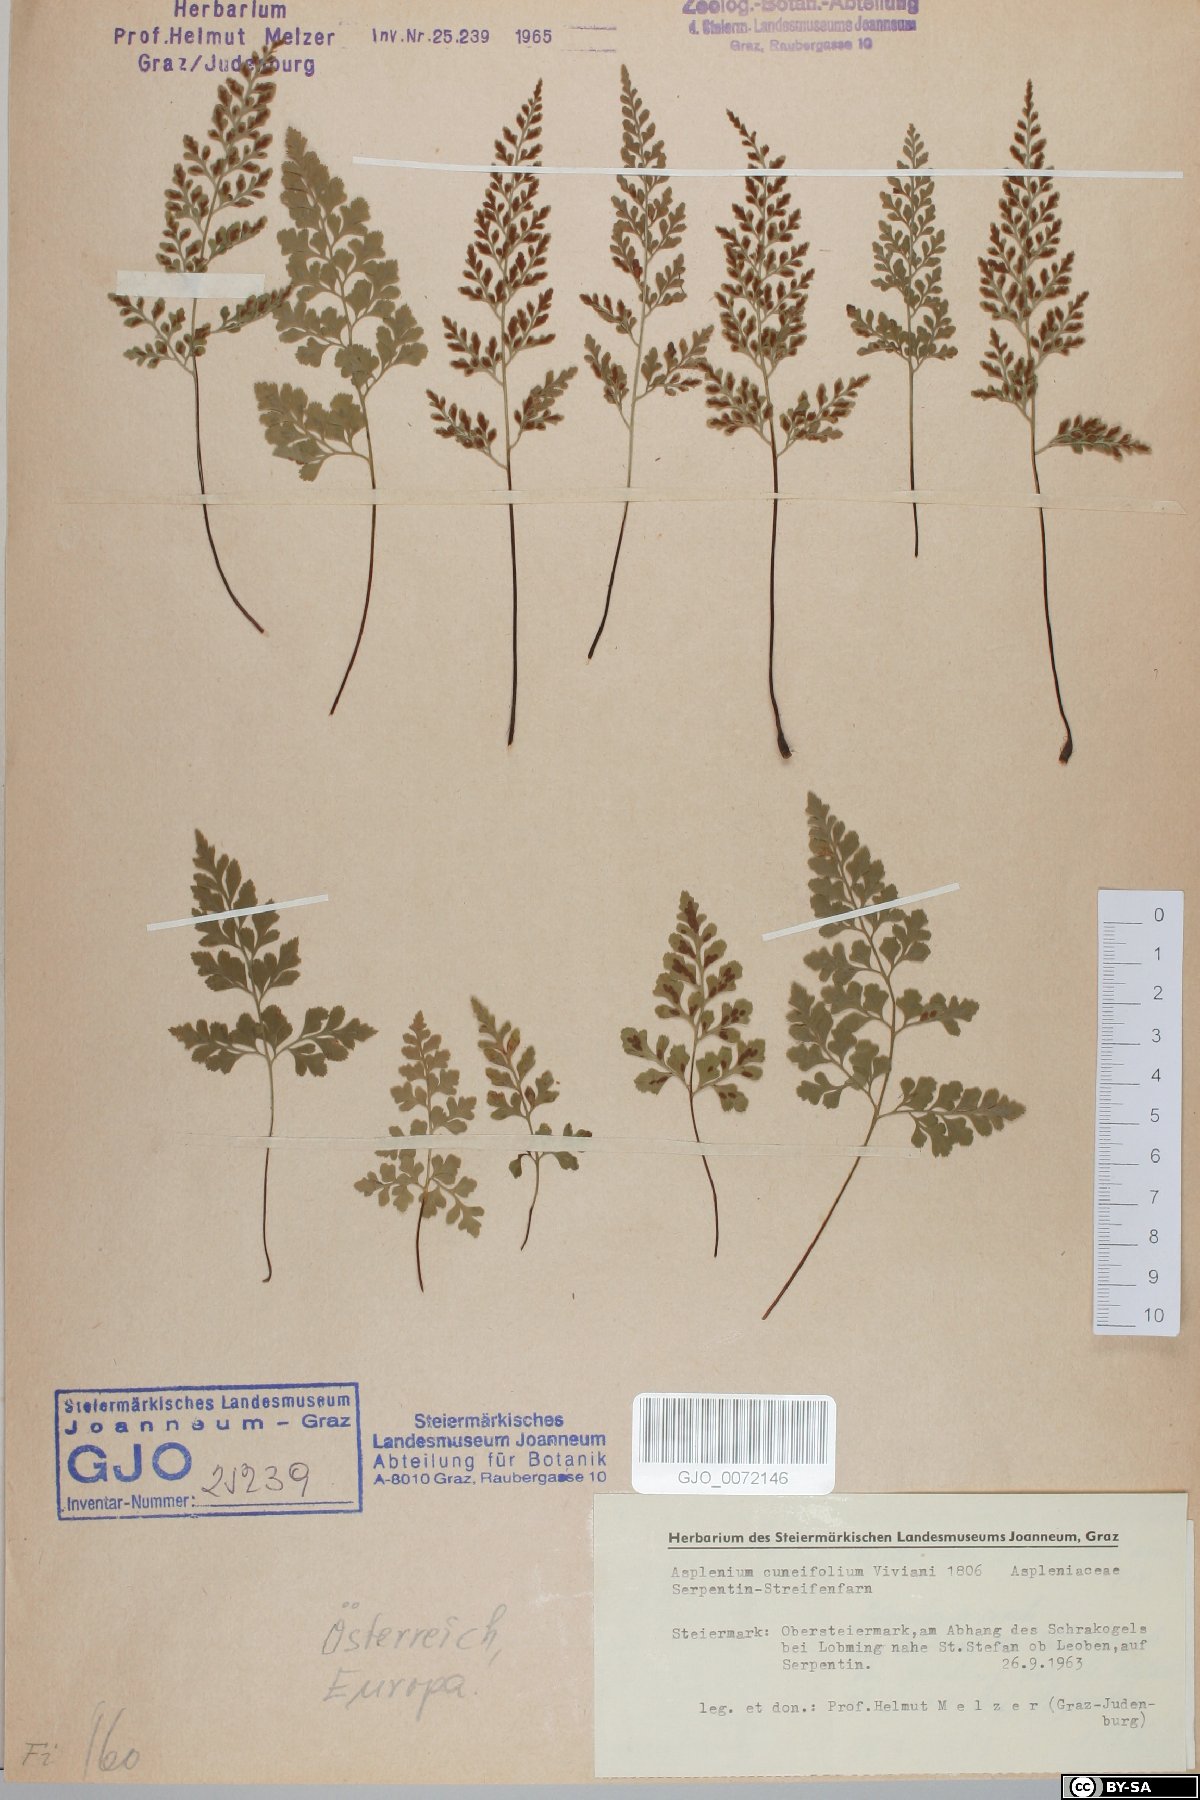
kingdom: Plantae
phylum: Tracheophyta
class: Polypodiopsida
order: Polypodiales
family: Aspleniaceae
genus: Asplenium
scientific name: Asplenium cuneifolium
